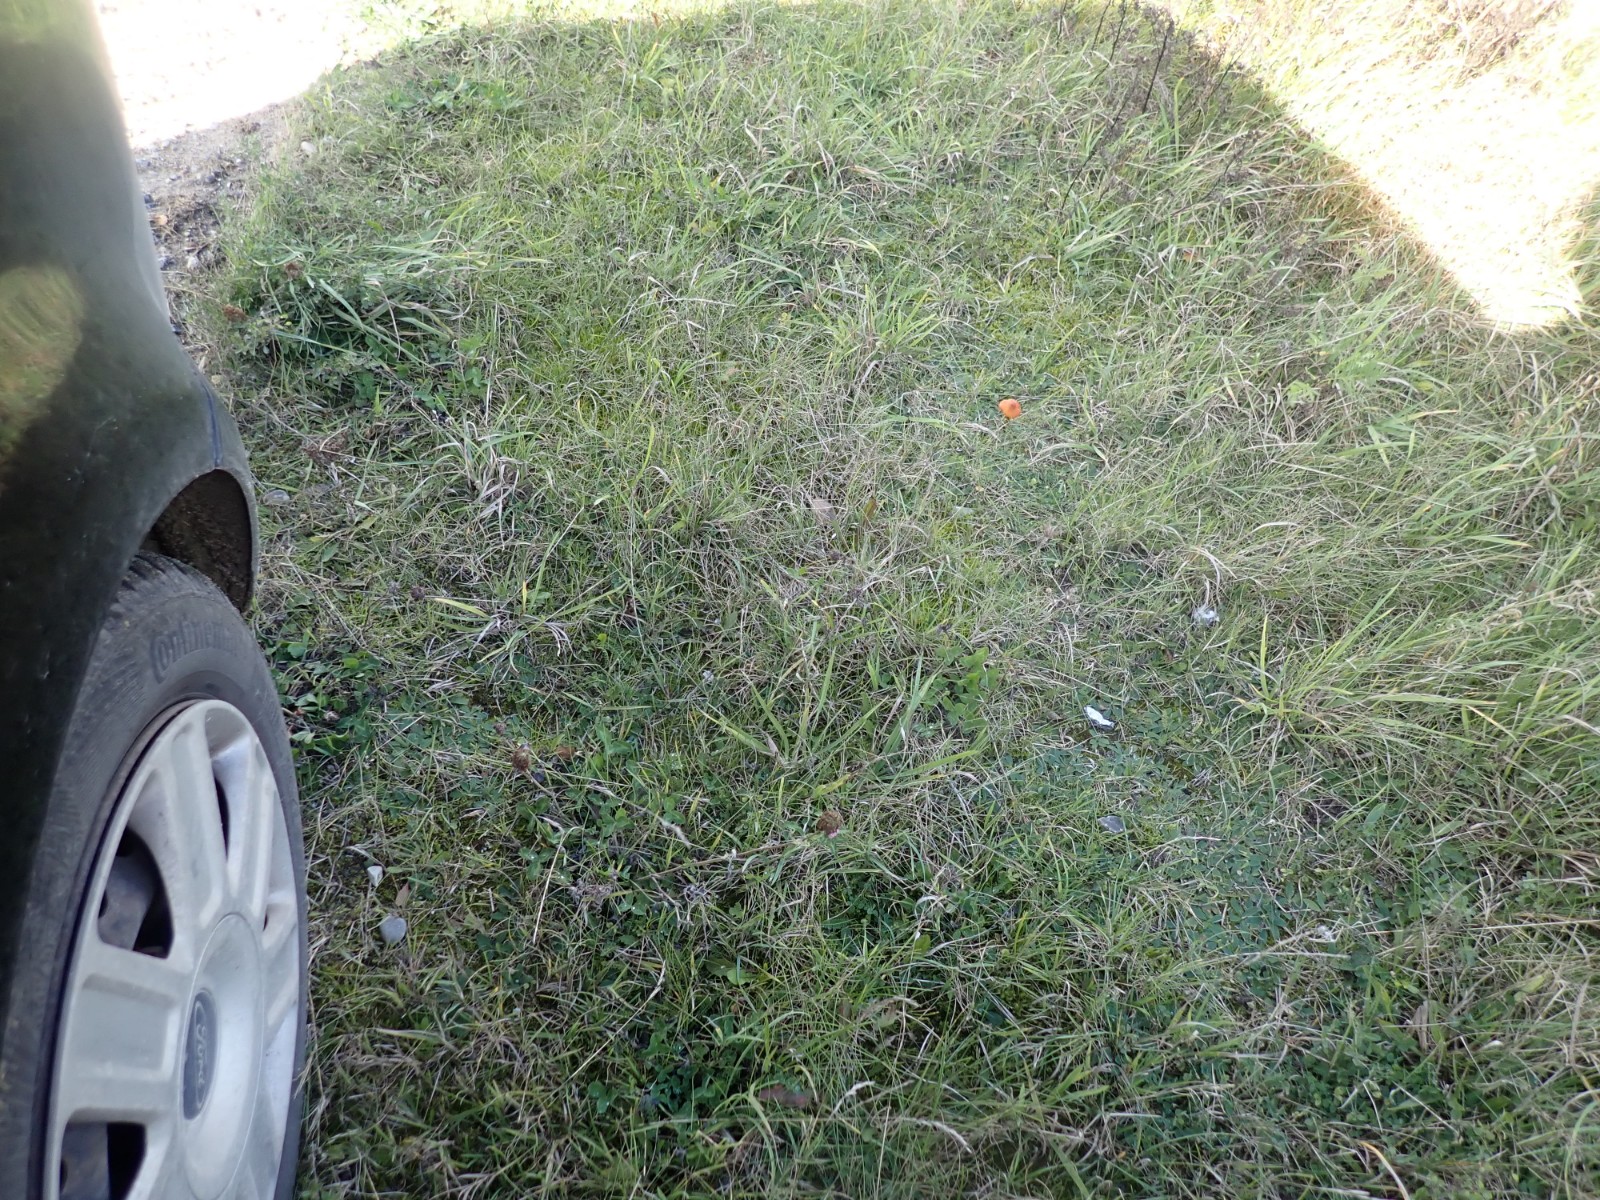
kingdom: Fungi
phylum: Basidiomycota
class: Agaricomycetes
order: Agaricales
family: Hygrophoraceae
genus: Hygrocybe
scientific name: Hygrocybe conica
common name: kegle-vokshat
